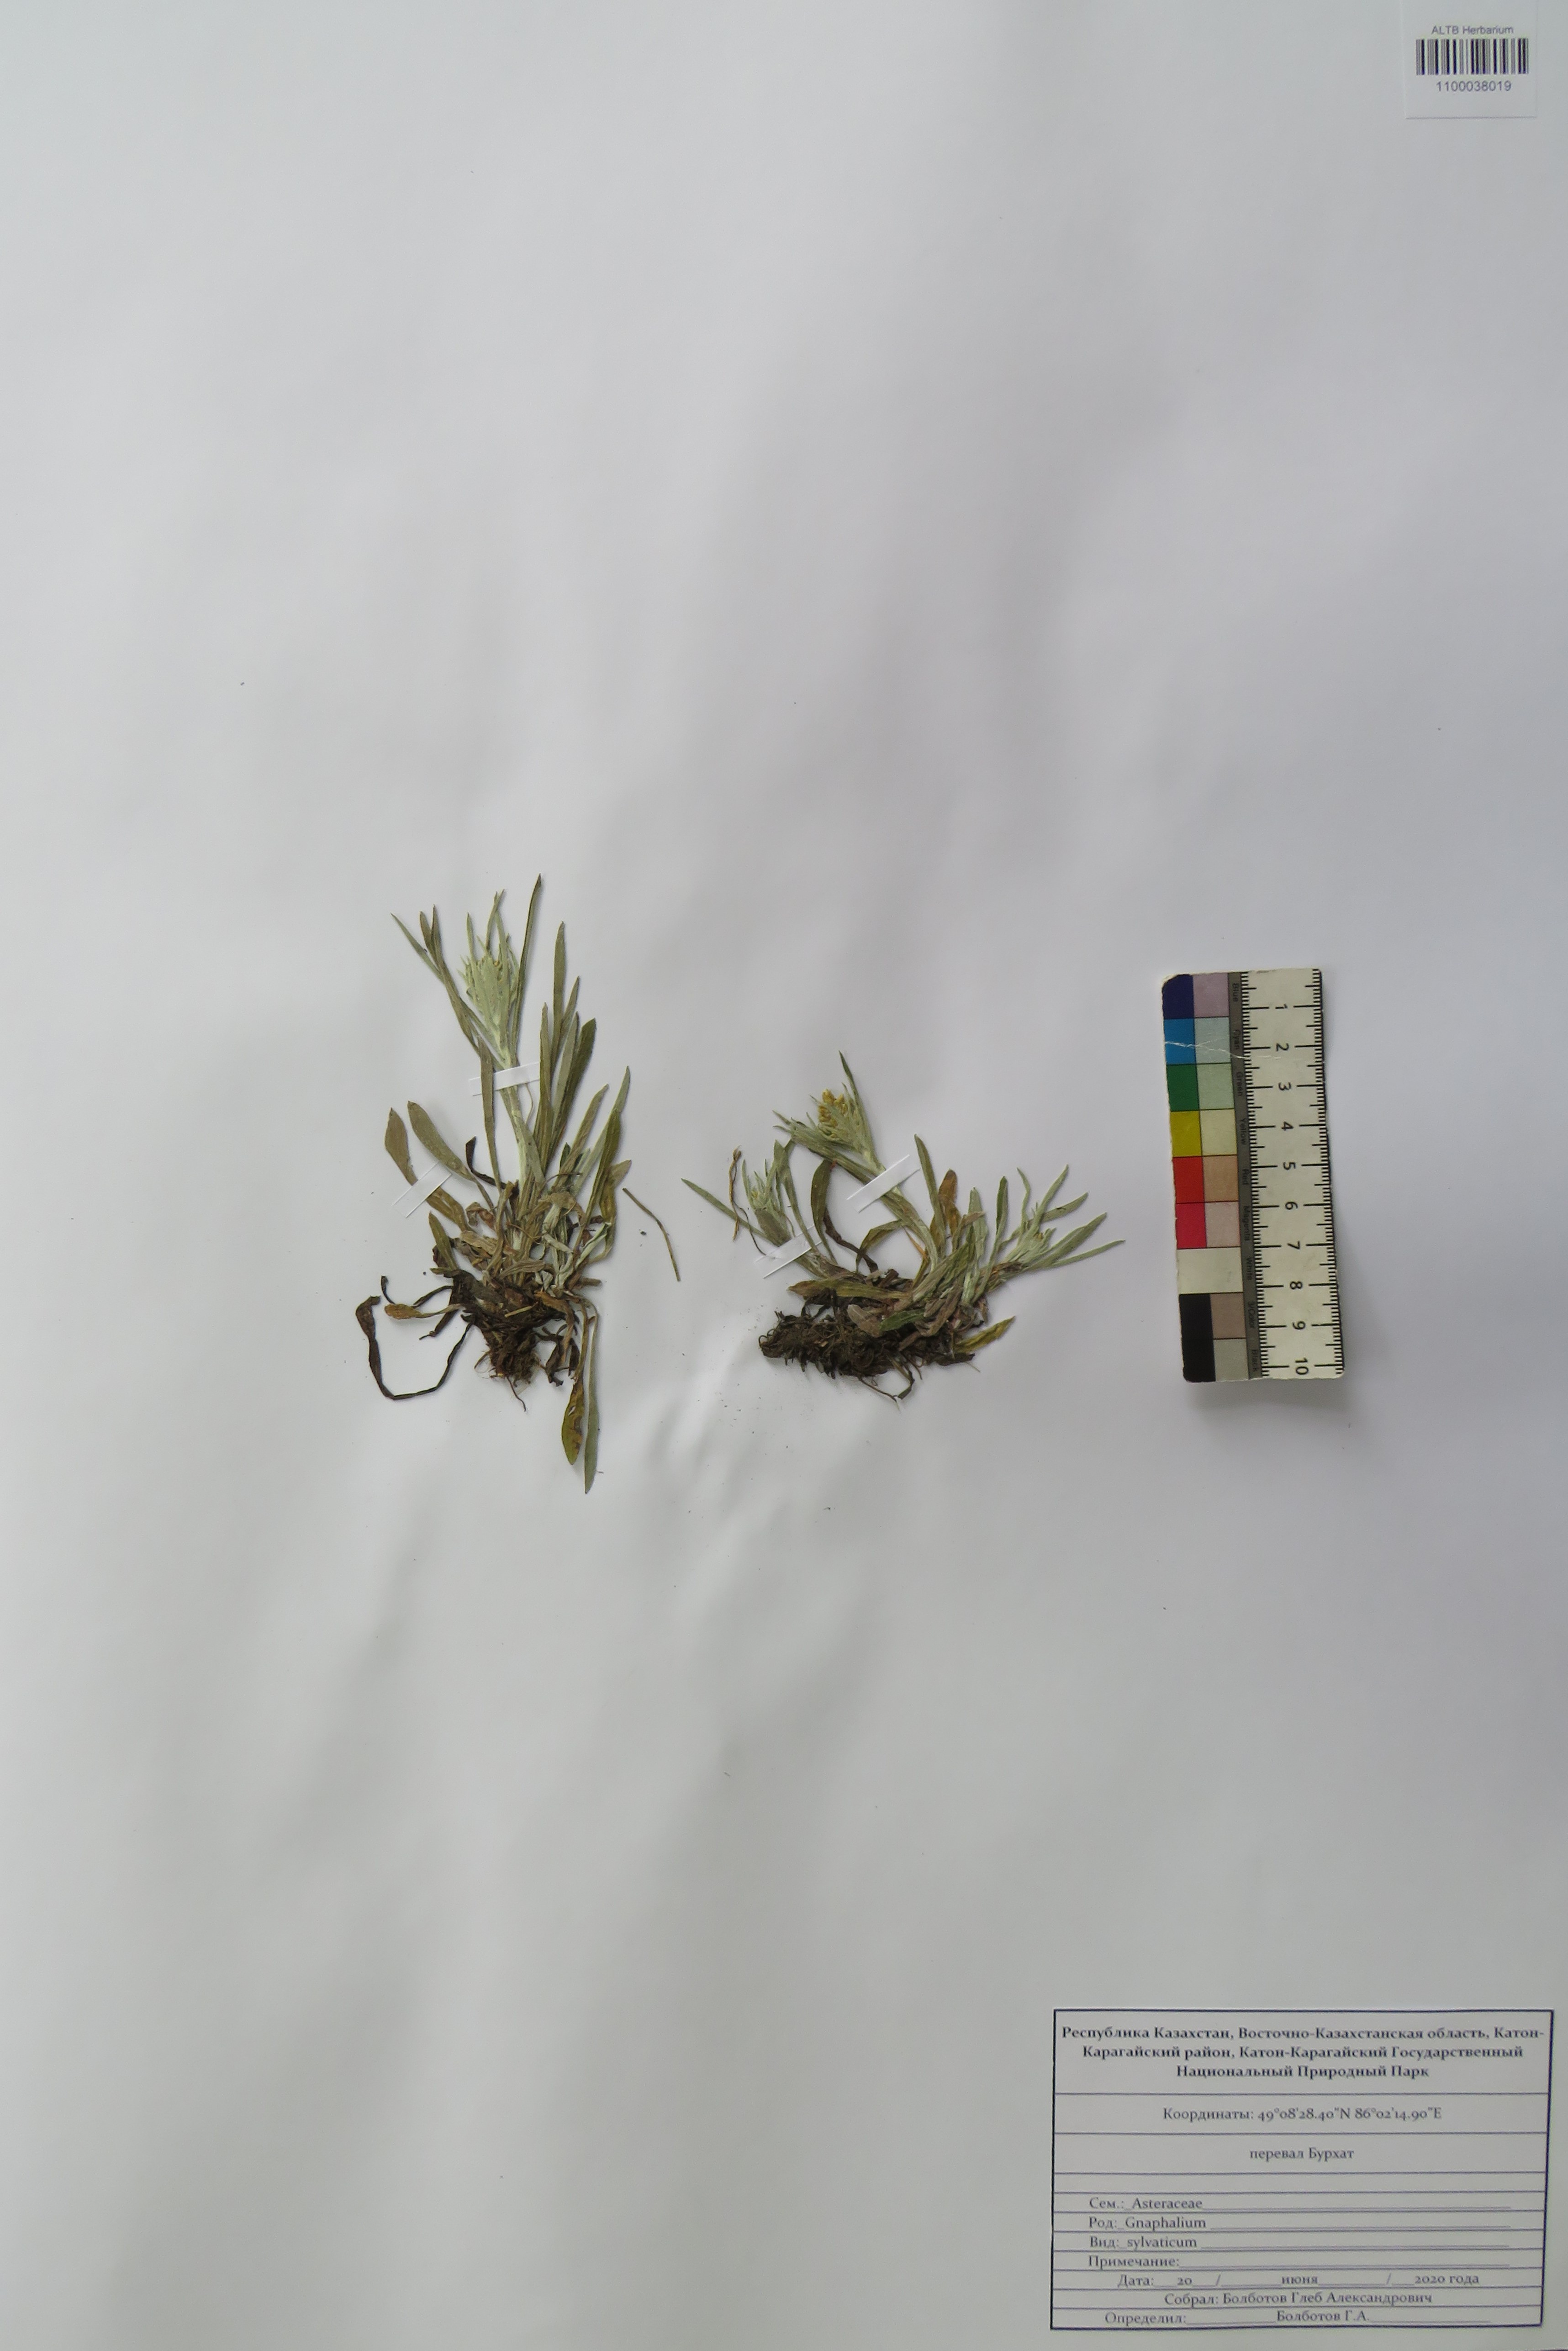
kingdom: Plantae
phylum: Tracheophyta
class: Magnoliopsida
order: Asterales
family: Asteraceae
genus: Omalotheca
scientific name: Omalotheca sylvatica
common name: Heath cudweed
